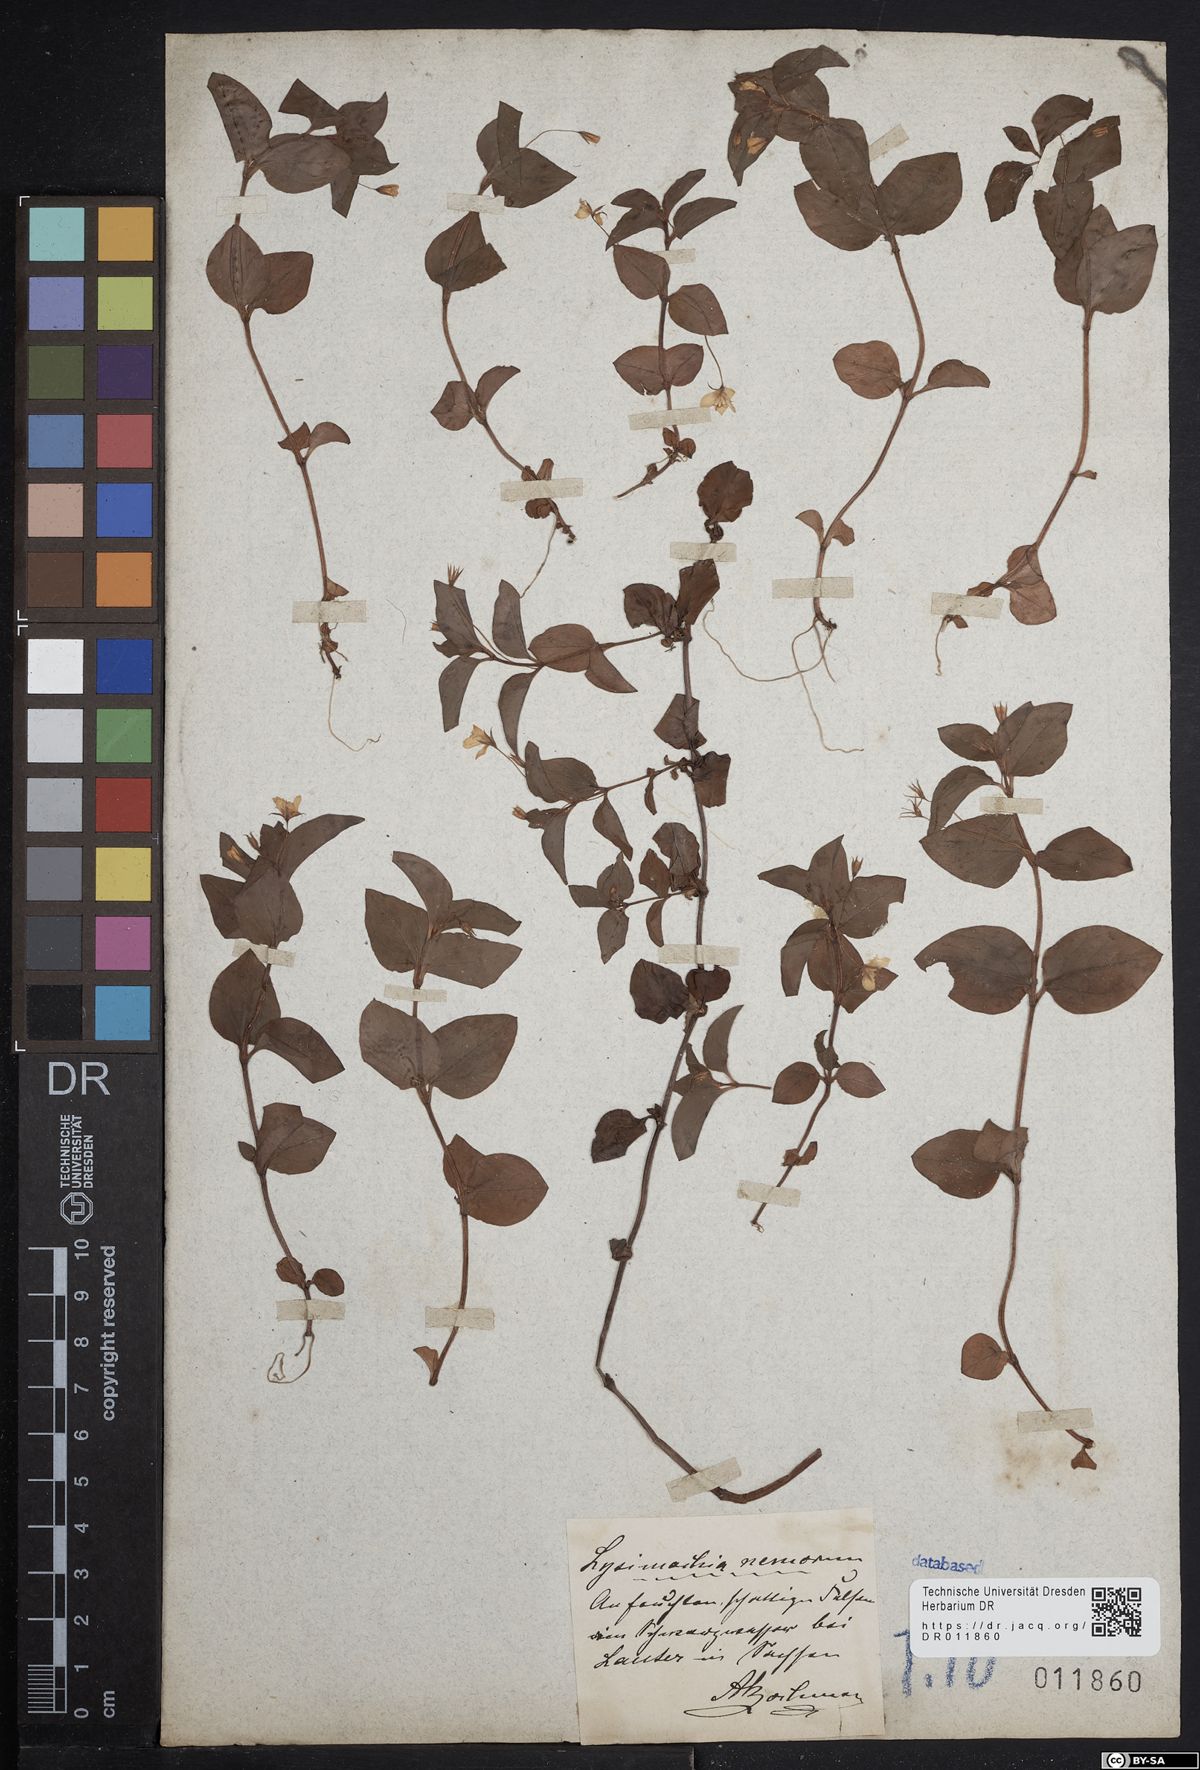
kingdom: Plantae
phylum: Tracheophyta
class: Magnoliopsida
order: Ericales
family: Primulaceae
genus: Lysimachia
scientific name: Lysimachia nemorum
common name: Yellow pimpernel
